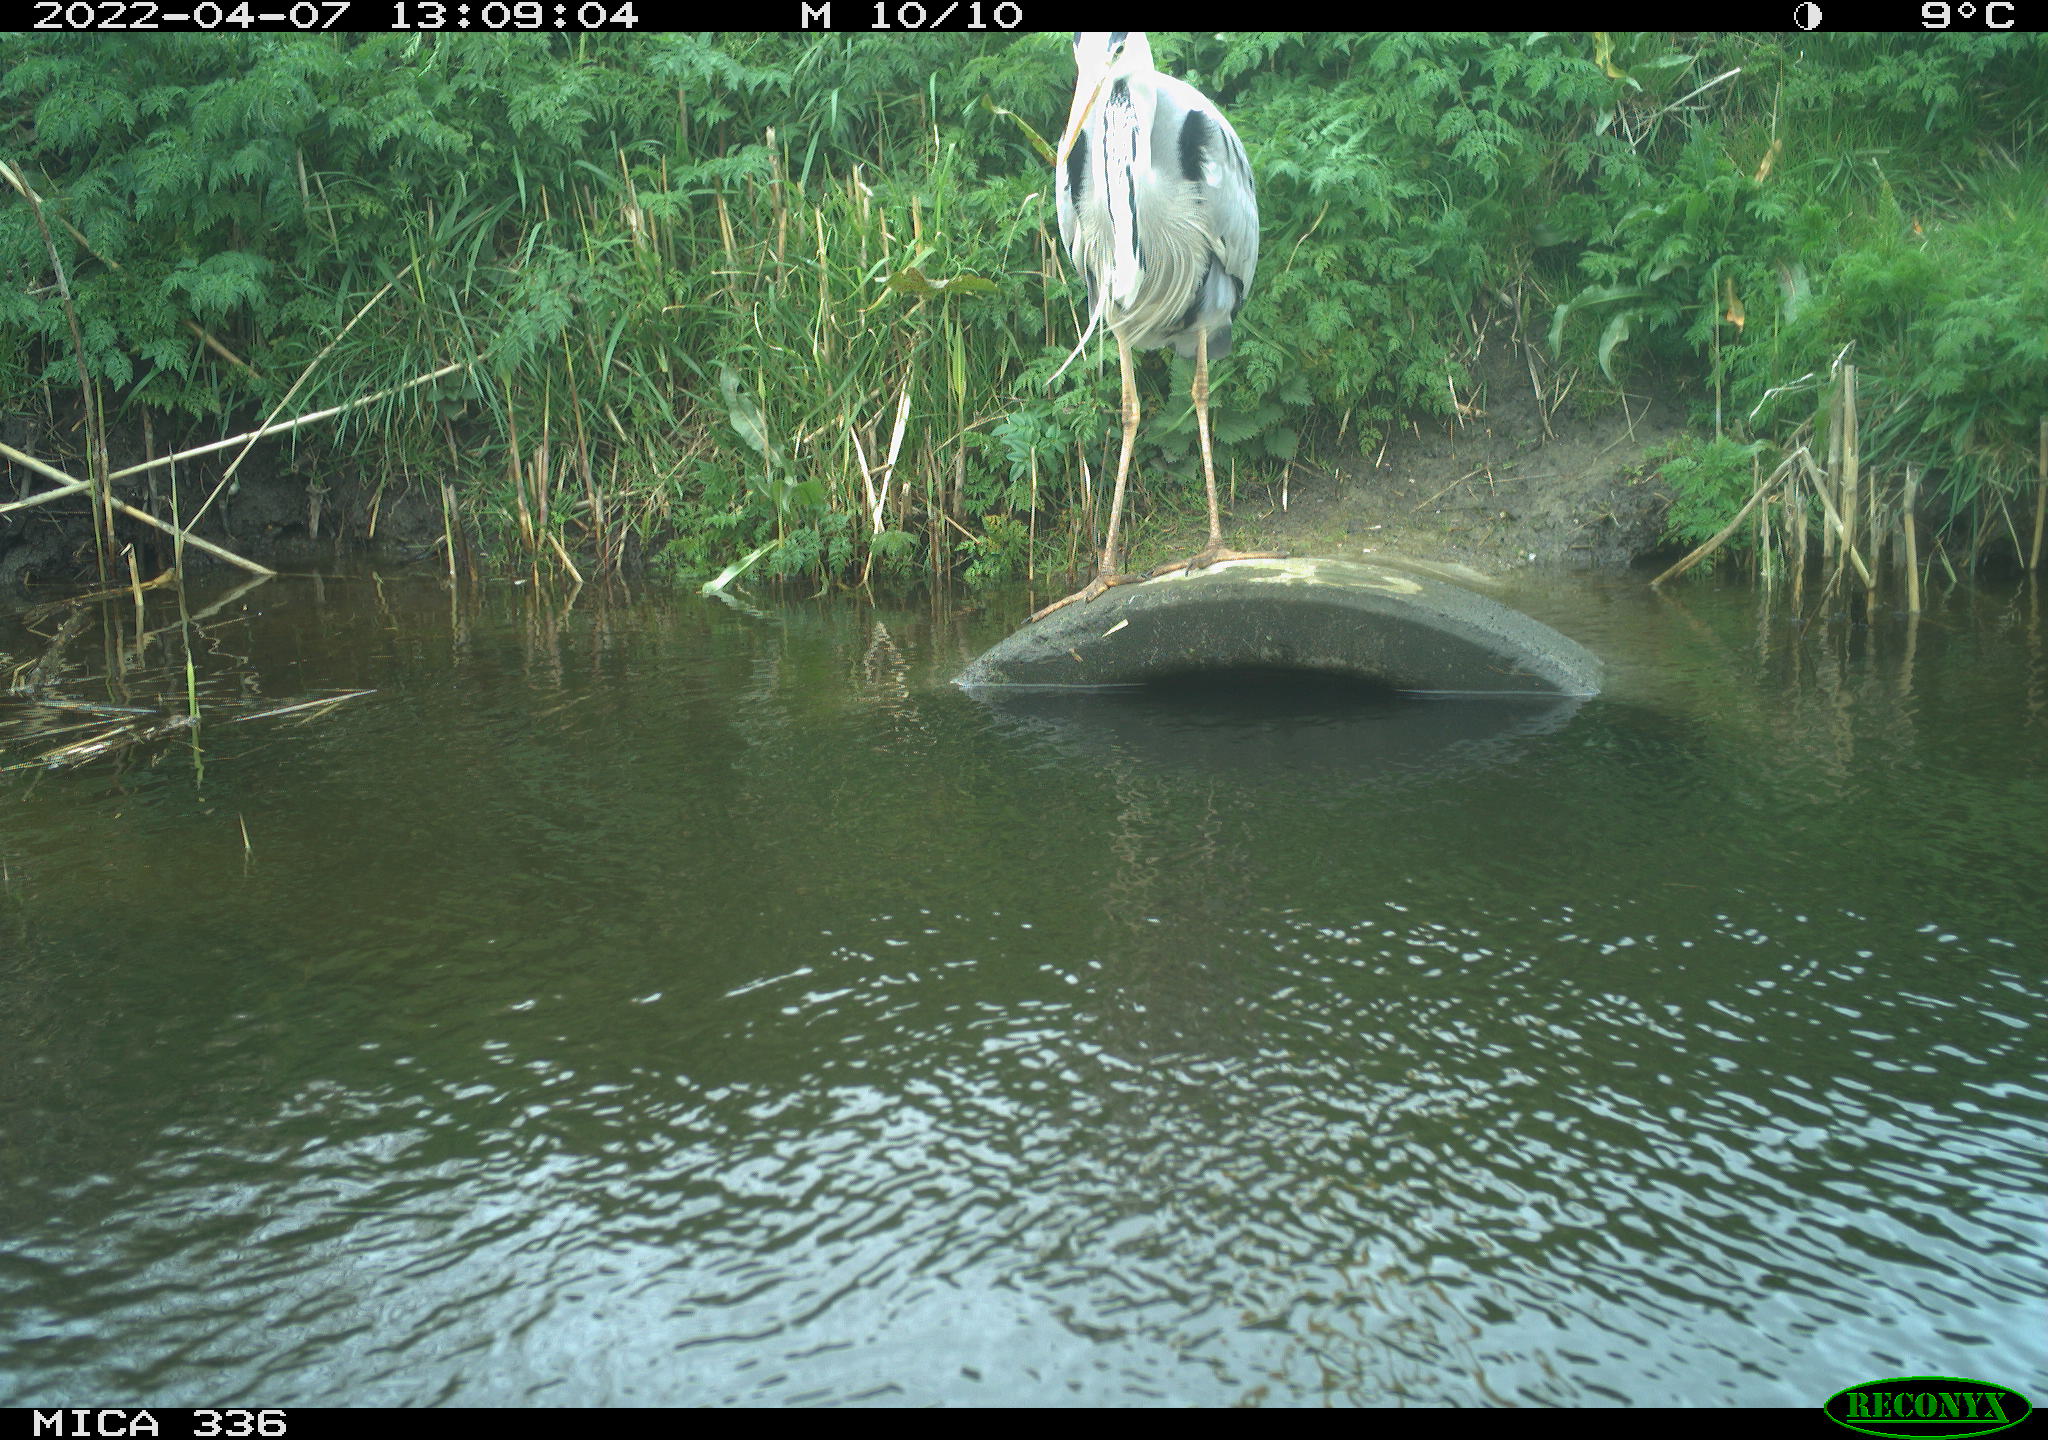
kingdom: Animalia
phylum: Chordata
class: Aves
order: Pelecaniformes
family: Ardeidae
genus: Ardea
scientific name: Ardea
